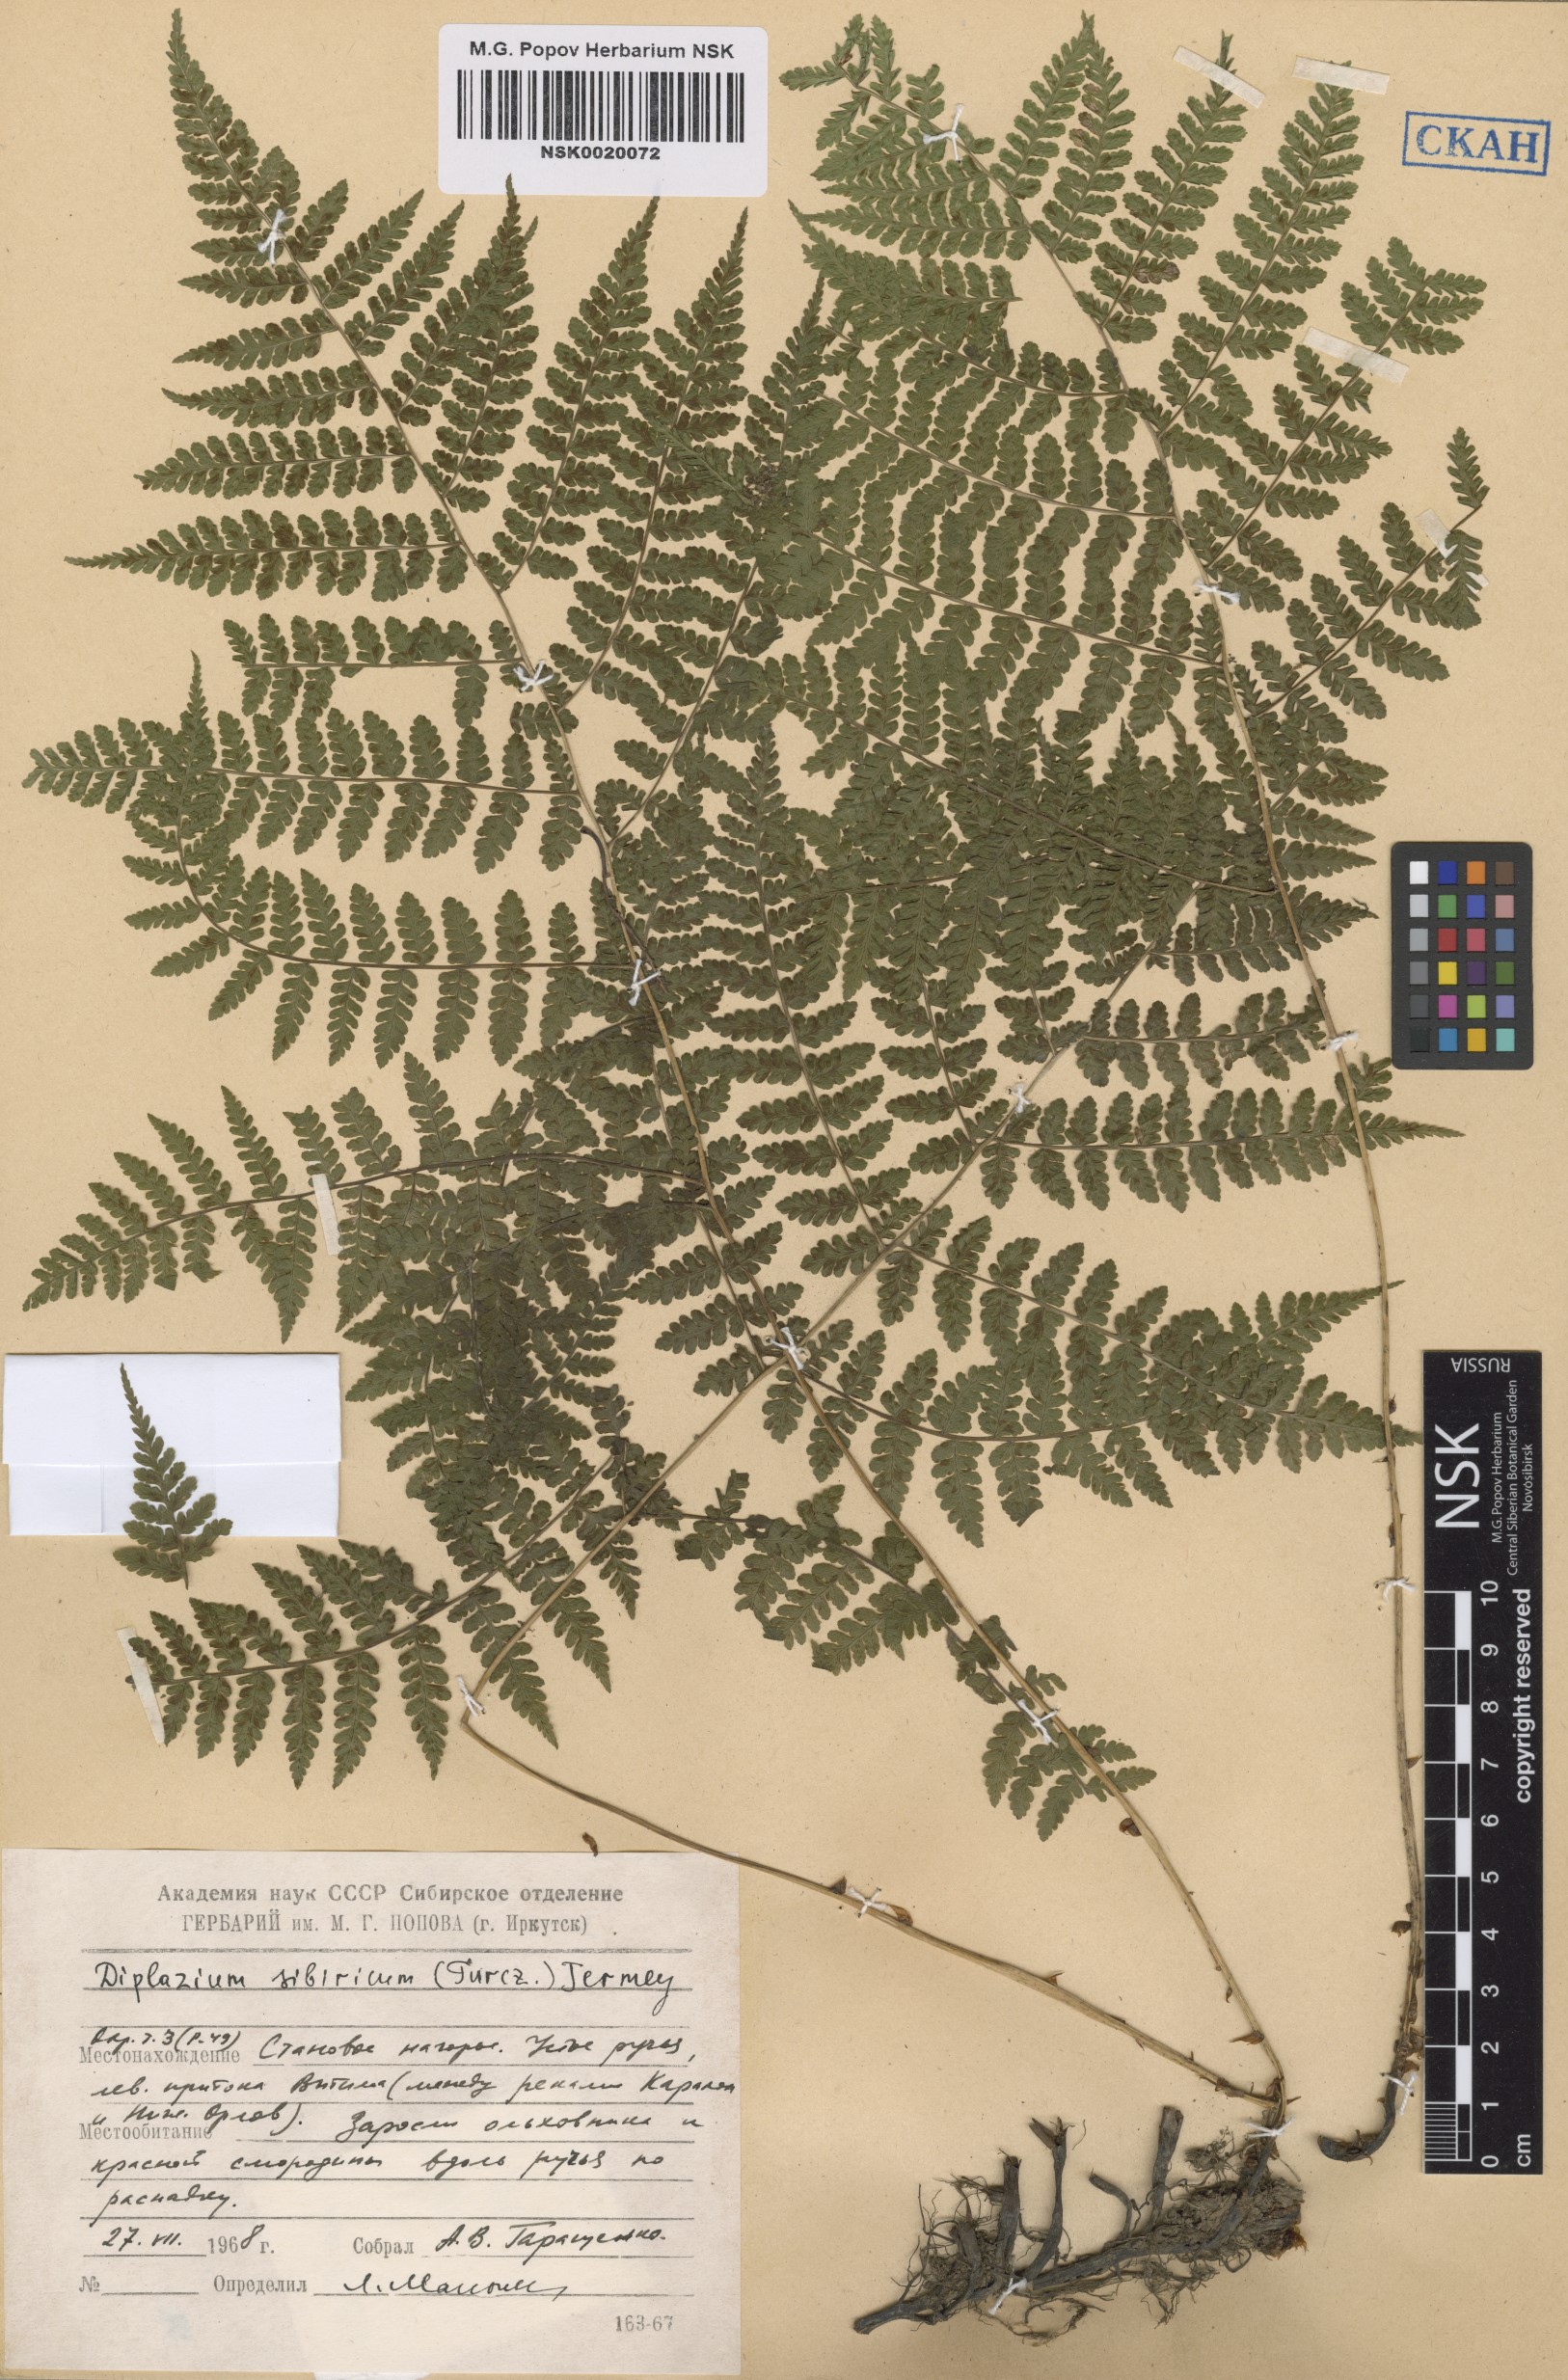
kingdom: Plantae
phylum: Tracheophyta
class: Polypodiopsida
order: Polypodiales
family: Athyriaceae
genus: Diplazium
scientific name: Diplazium sibiricum
